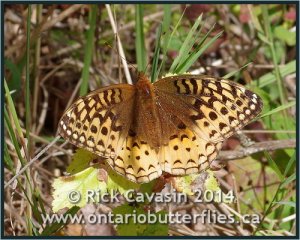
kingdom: Animalia
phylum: Arthropoda
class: Insecta
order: Lepidoptera
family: Nymphalidae
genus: Speyeria
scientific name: Speyeria cybele
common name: Great Spangled Fritillary
